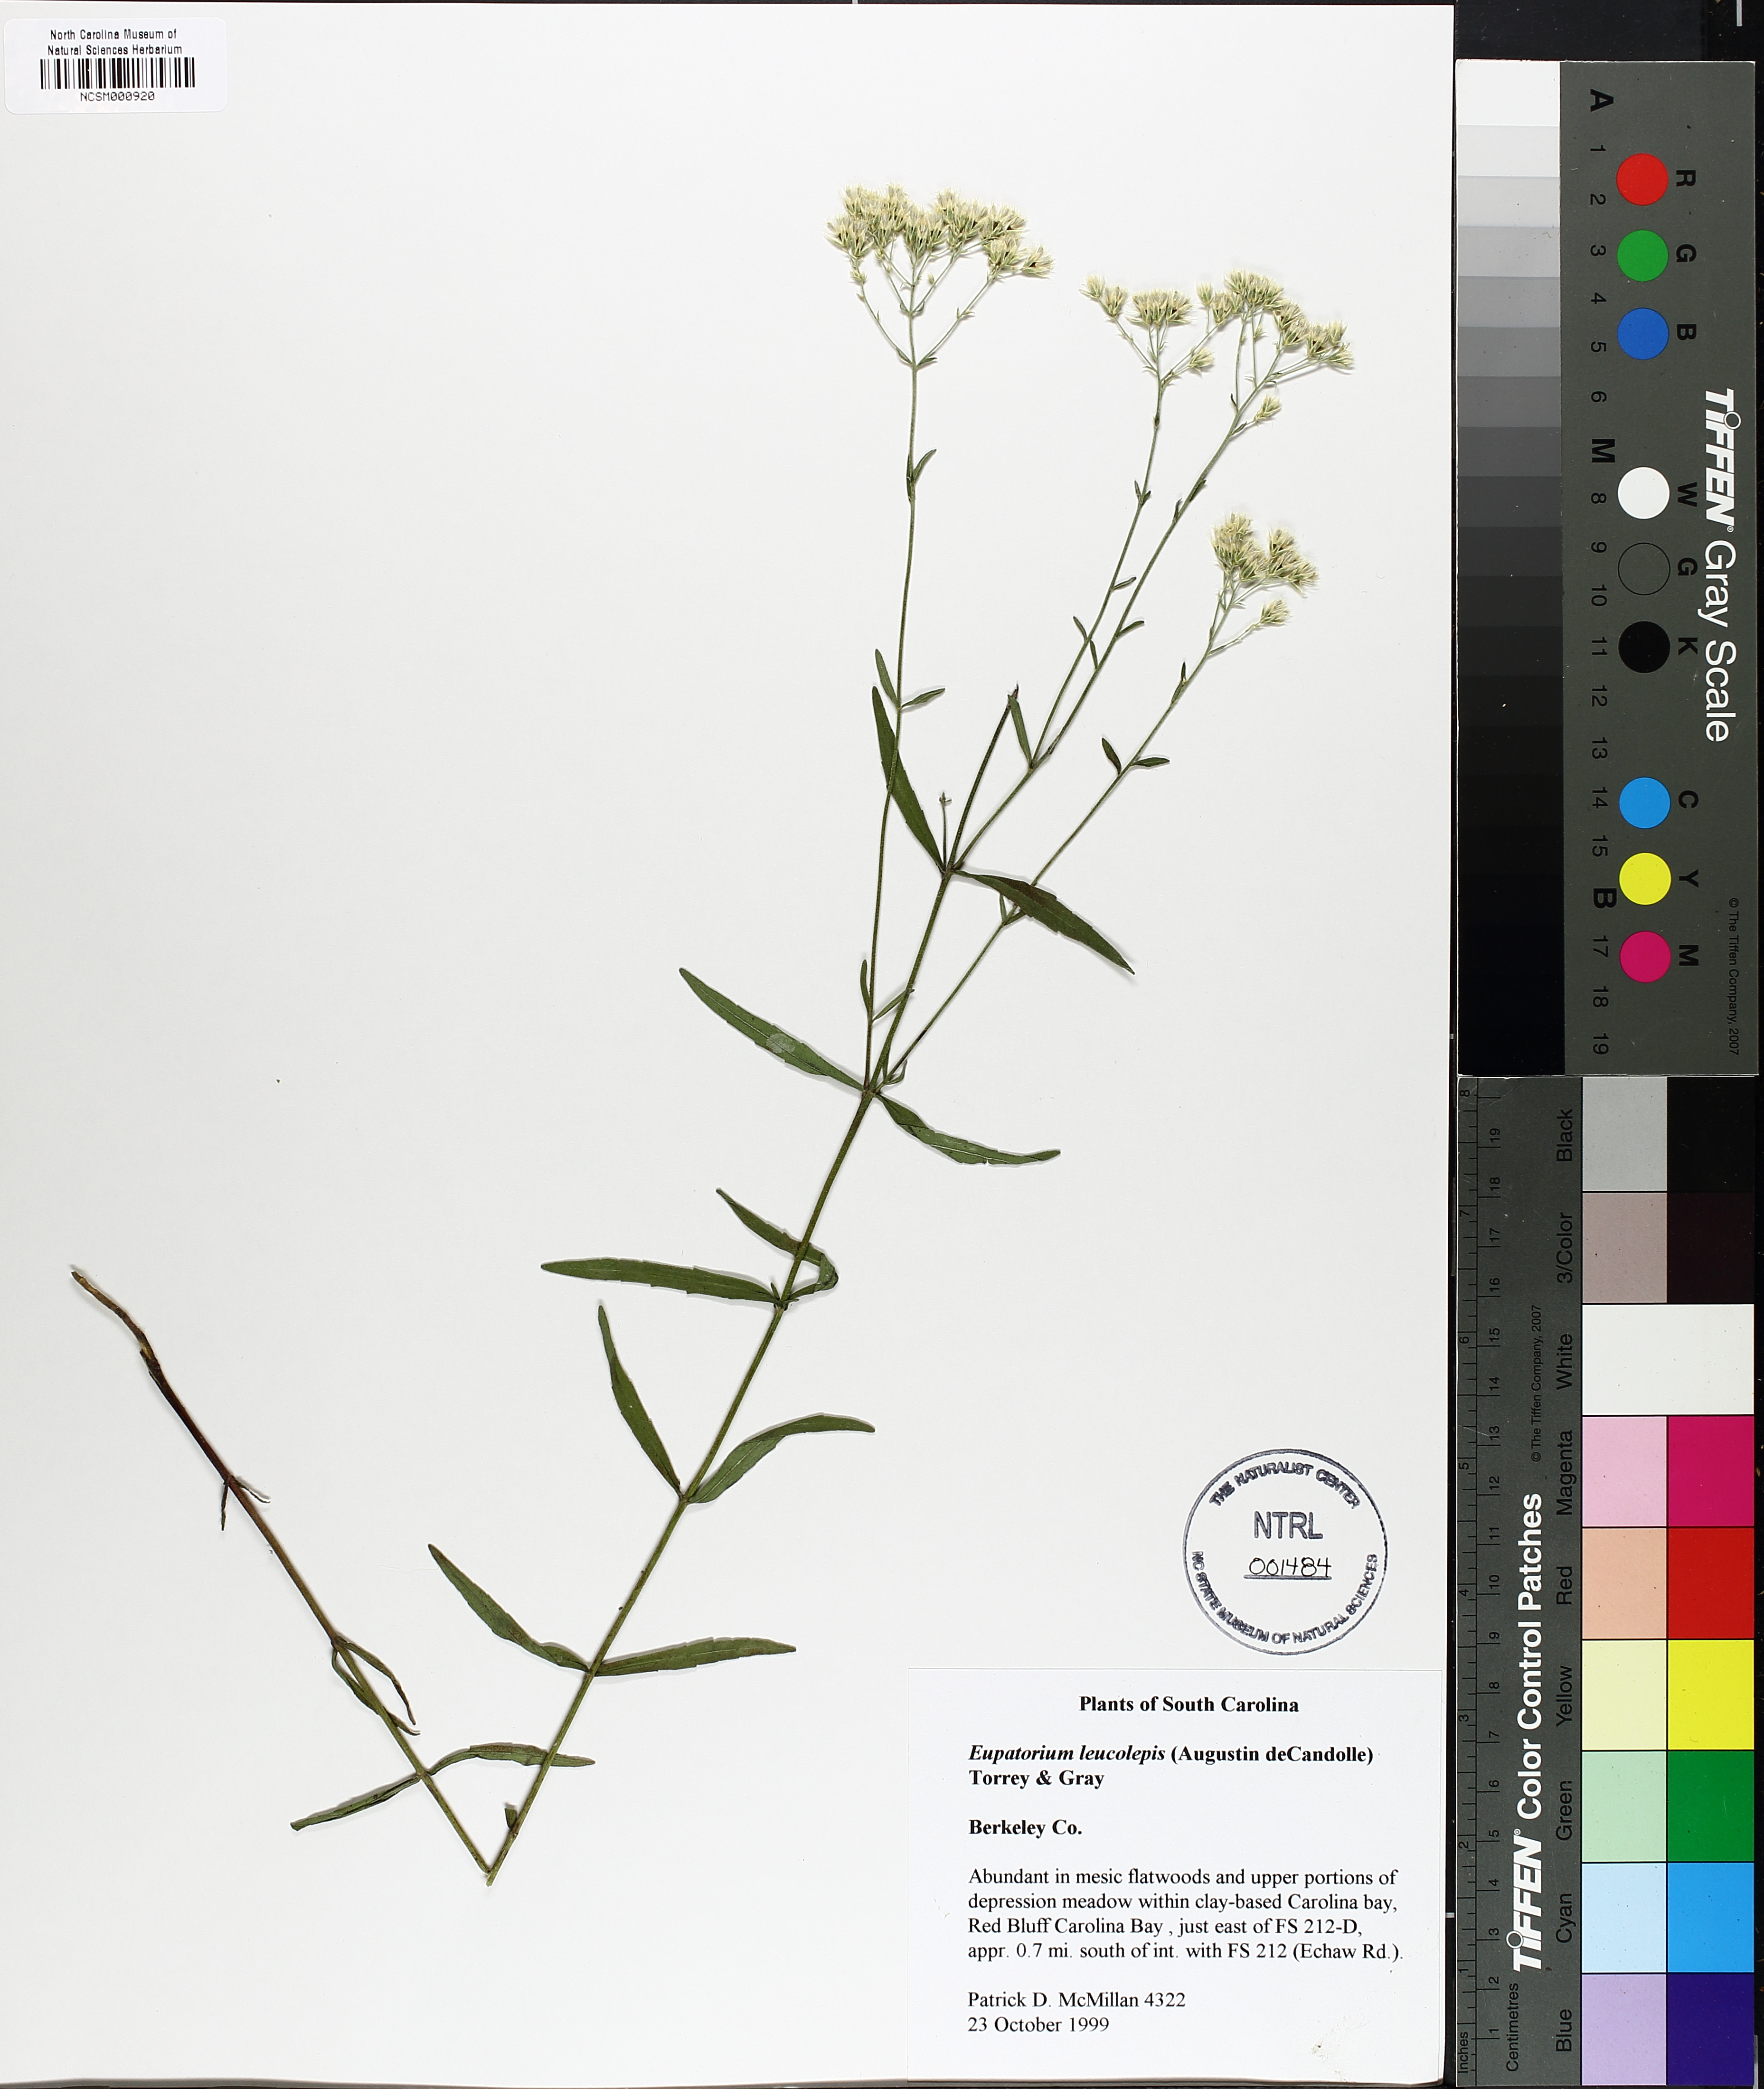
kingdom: Plantae
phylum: Tracheophyta
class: Magnoliopsida
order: Asterales
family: Asteraceae
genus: Eupatorium
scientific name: Eupatorium leucolepis
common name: Justiceweed
